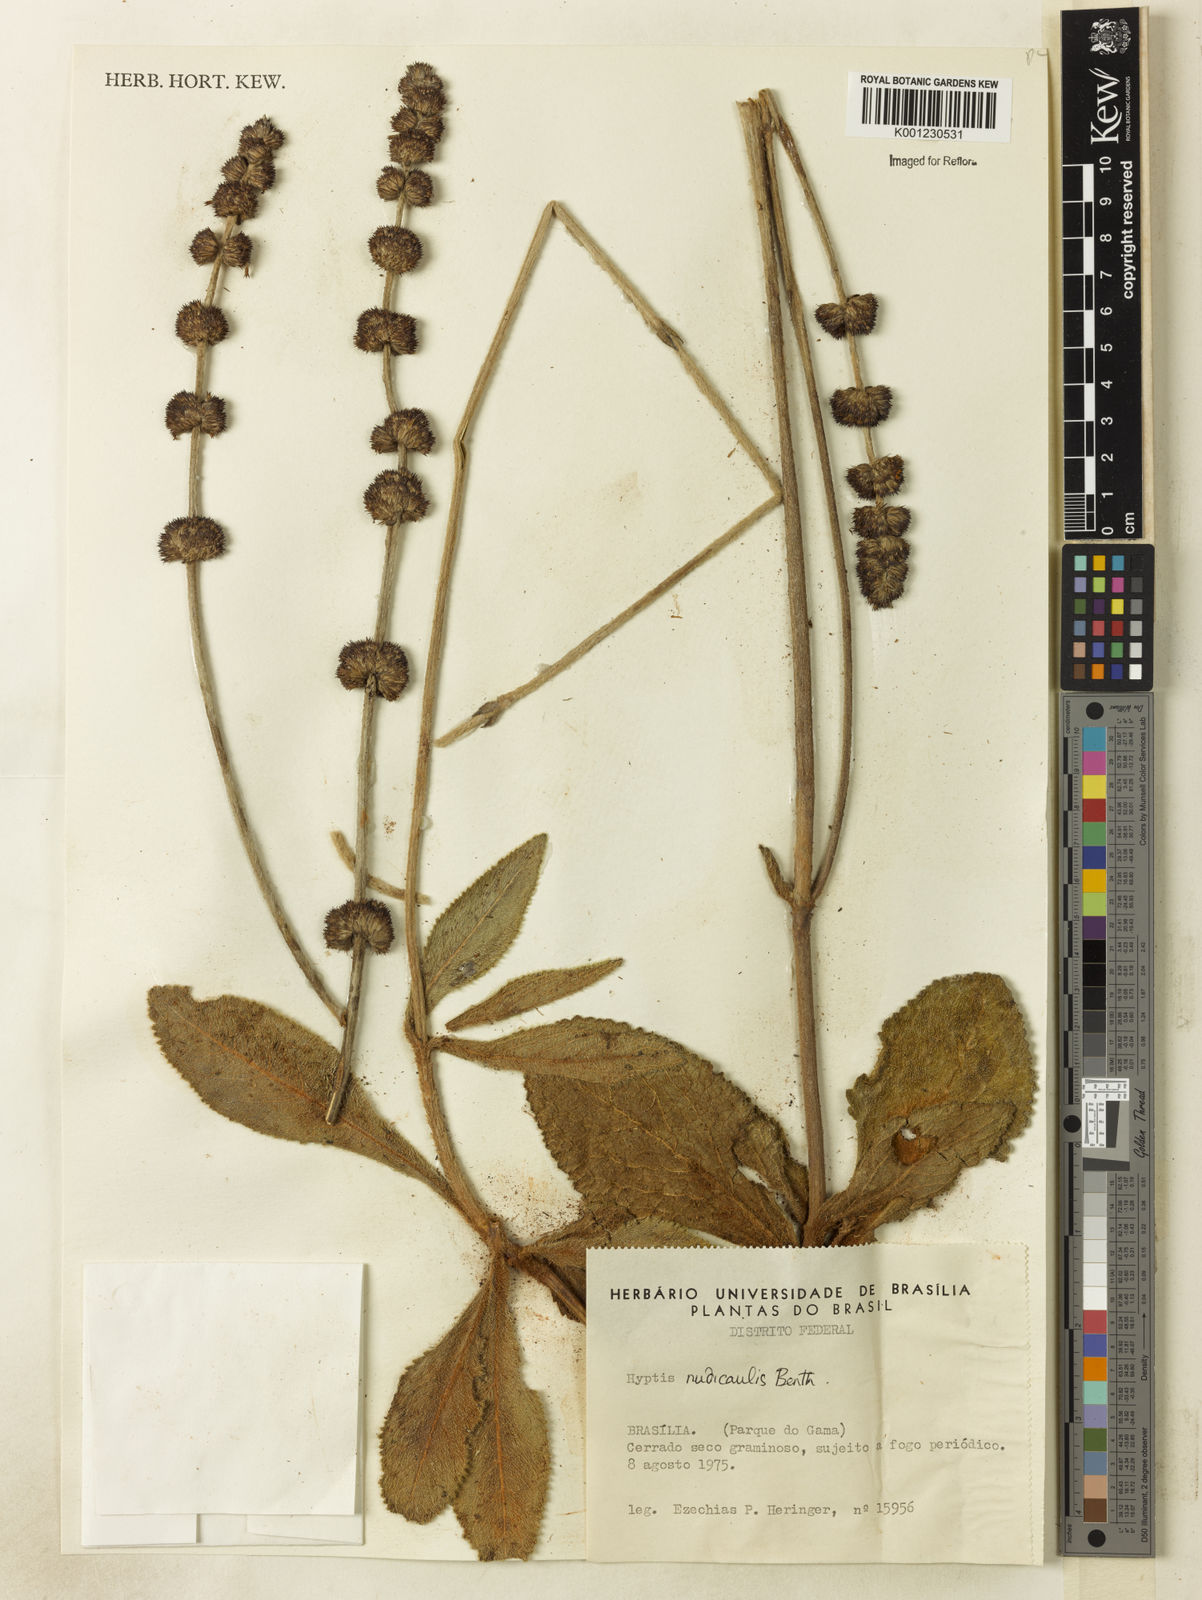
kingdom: Plantae
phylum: Tracheophyta
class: Magnoliopsida
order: Lamiales
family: Lamiaceae
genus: Hyptis
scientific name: Hyptis nudicaulis
